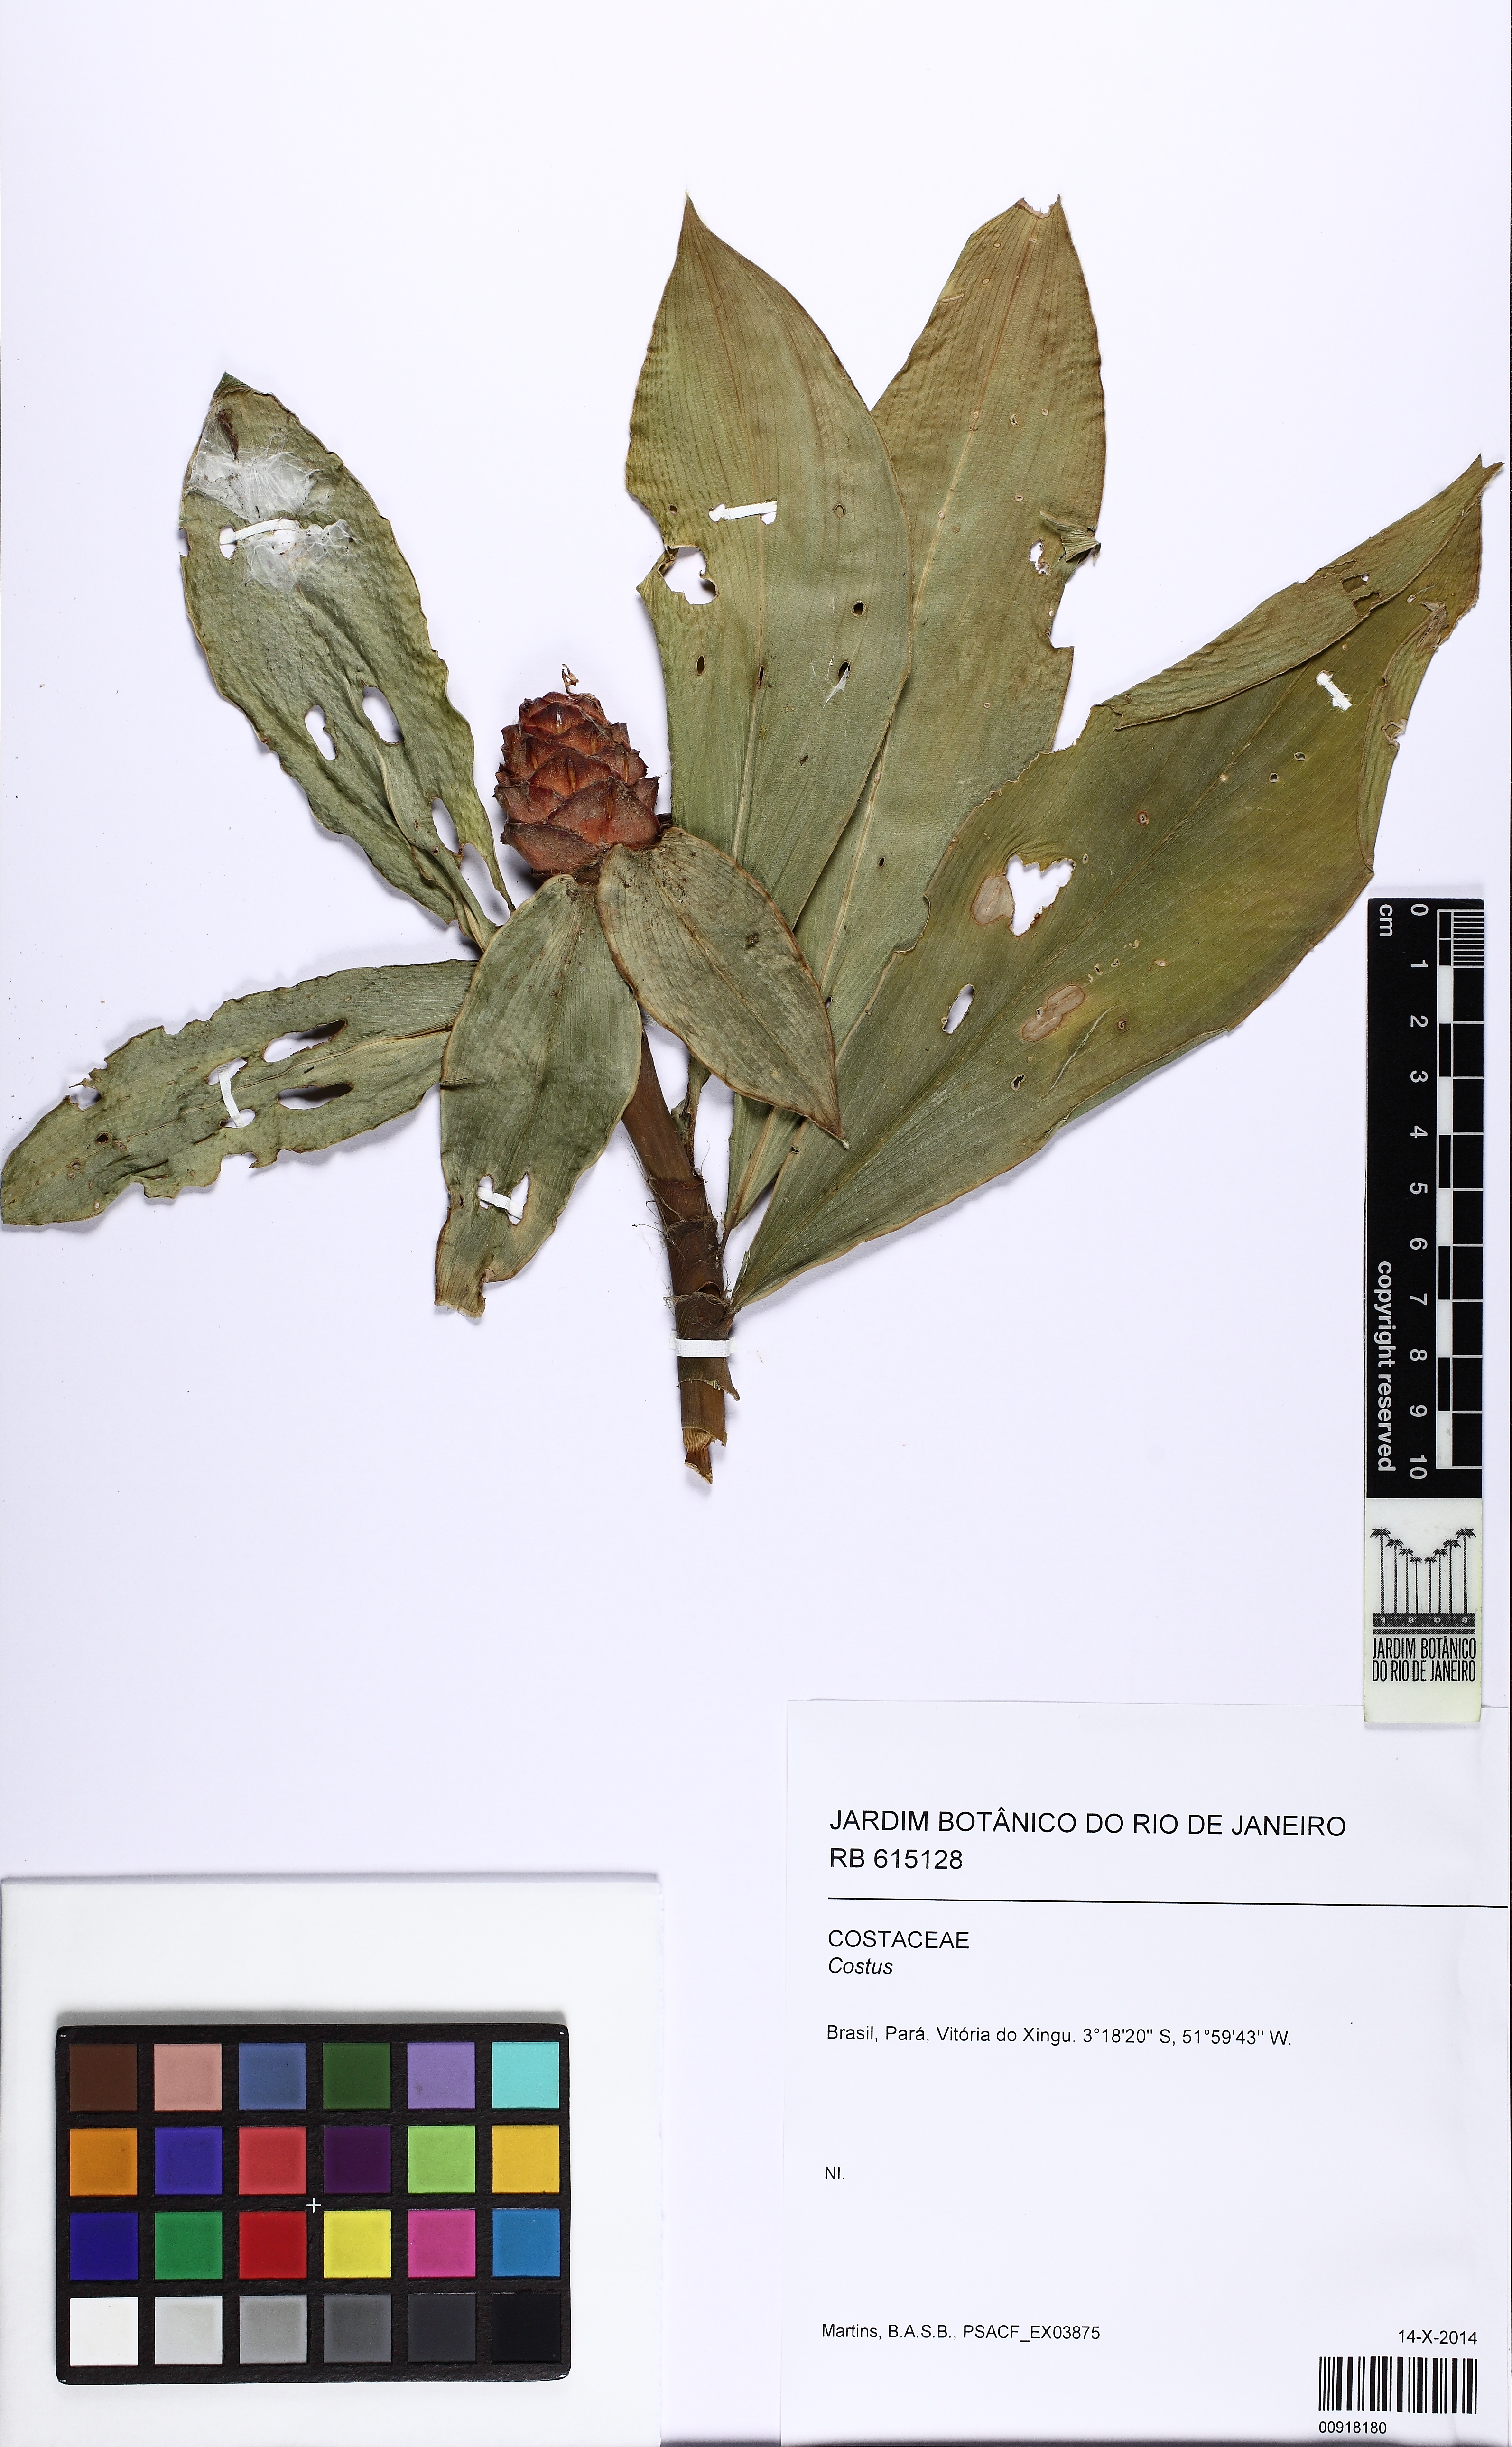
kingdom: Plantae
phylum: Tracheophyta
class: Liliopsida
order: Zingiberales
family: Costaceae
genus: Costus
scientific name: Costus scaber
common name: Spiral head ginger
